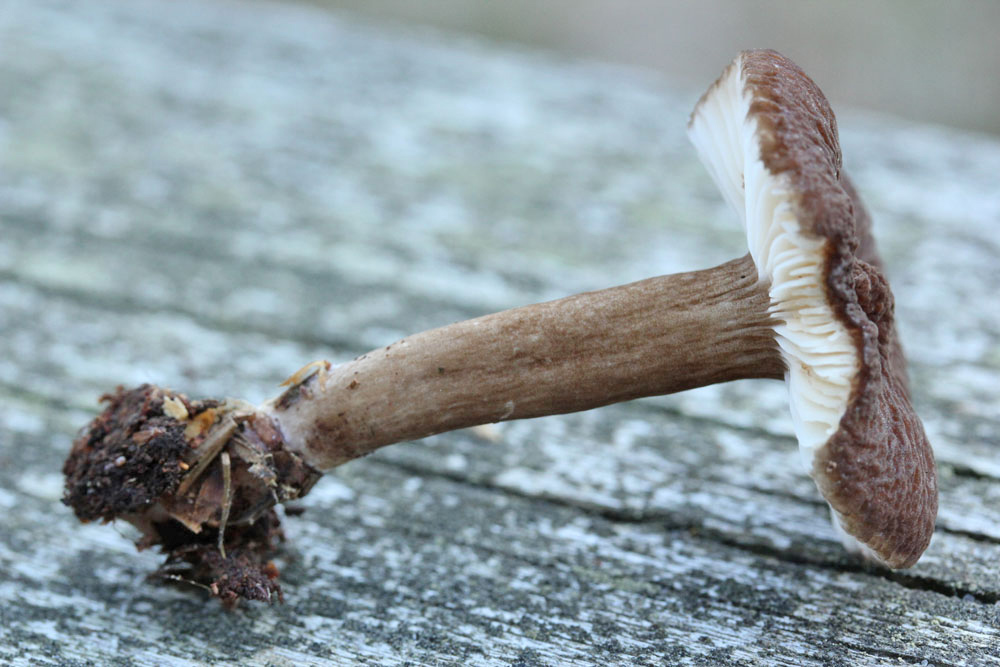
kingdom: Fungi
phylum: Basidiomycota
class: Agaricomycetes
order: Russulales
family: Russulaceae
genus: Lactarius
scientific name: Lactarius lignyotus
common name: fløjls-mælkehat
